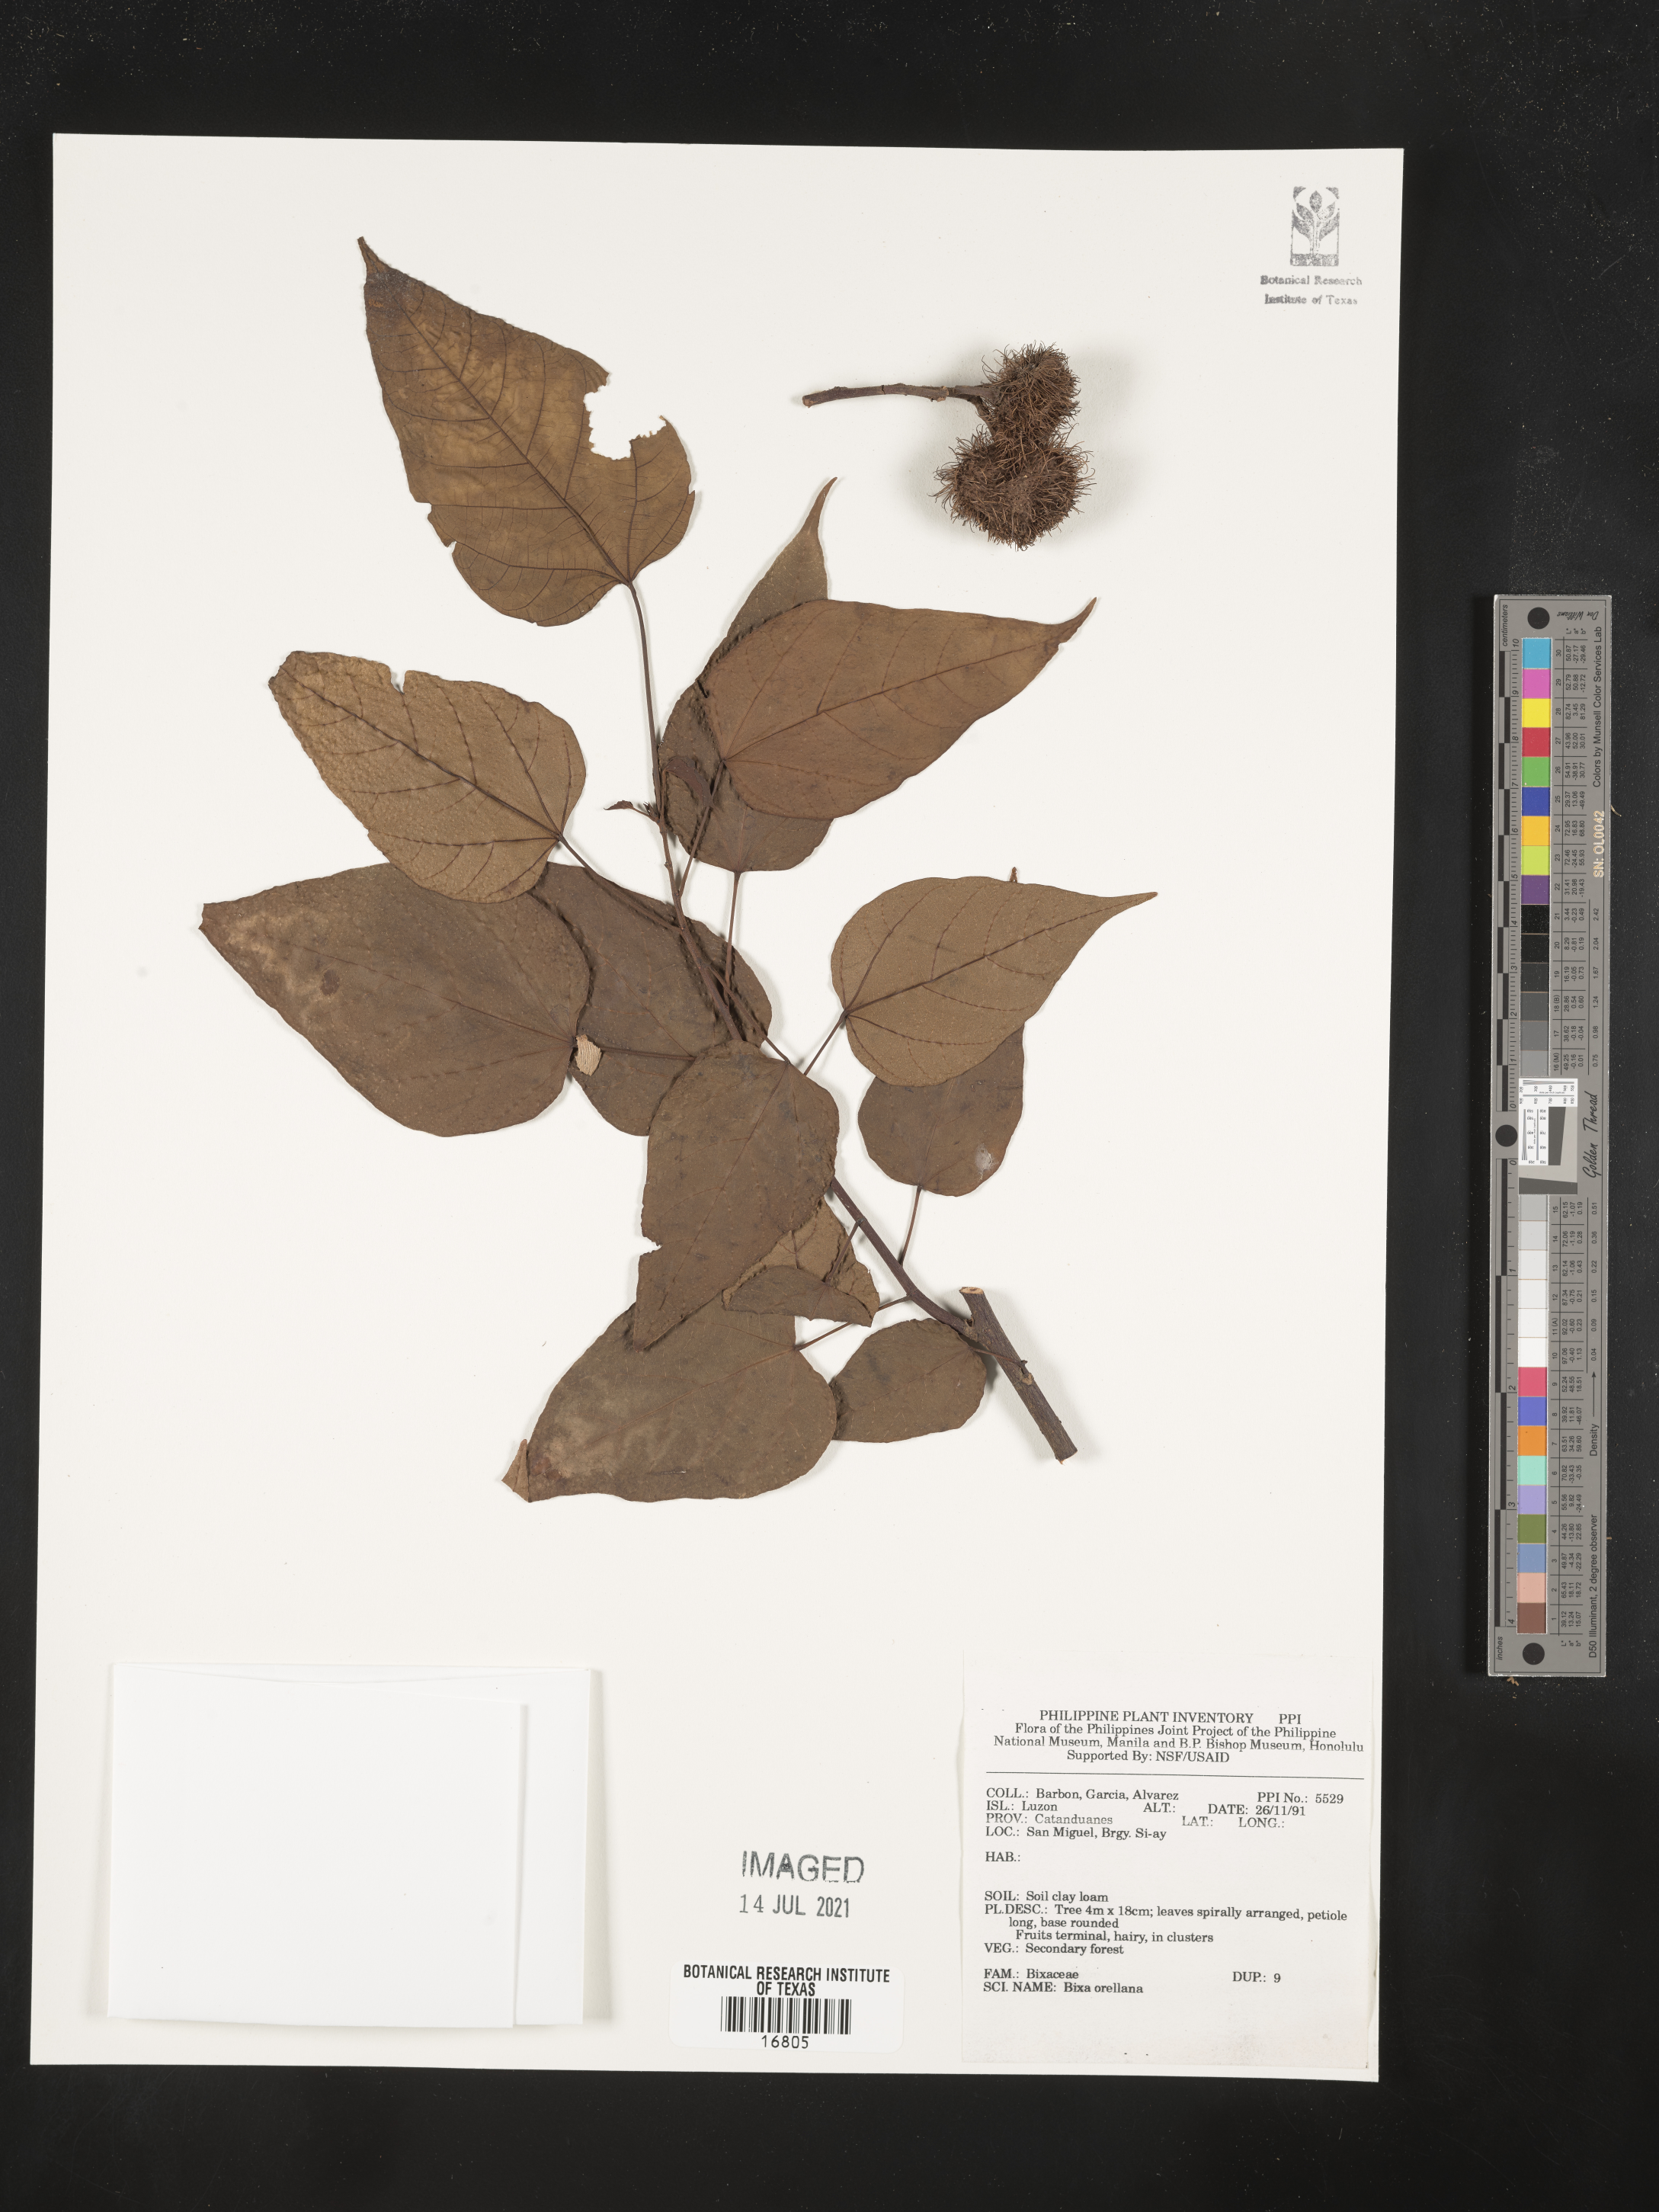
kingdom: Plantae
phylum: Tracheophyta
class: Magnoliopsida
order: Malvales
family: Bixaceae
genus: Bixa
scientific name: Bixa orellana
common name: Lipsticktree
